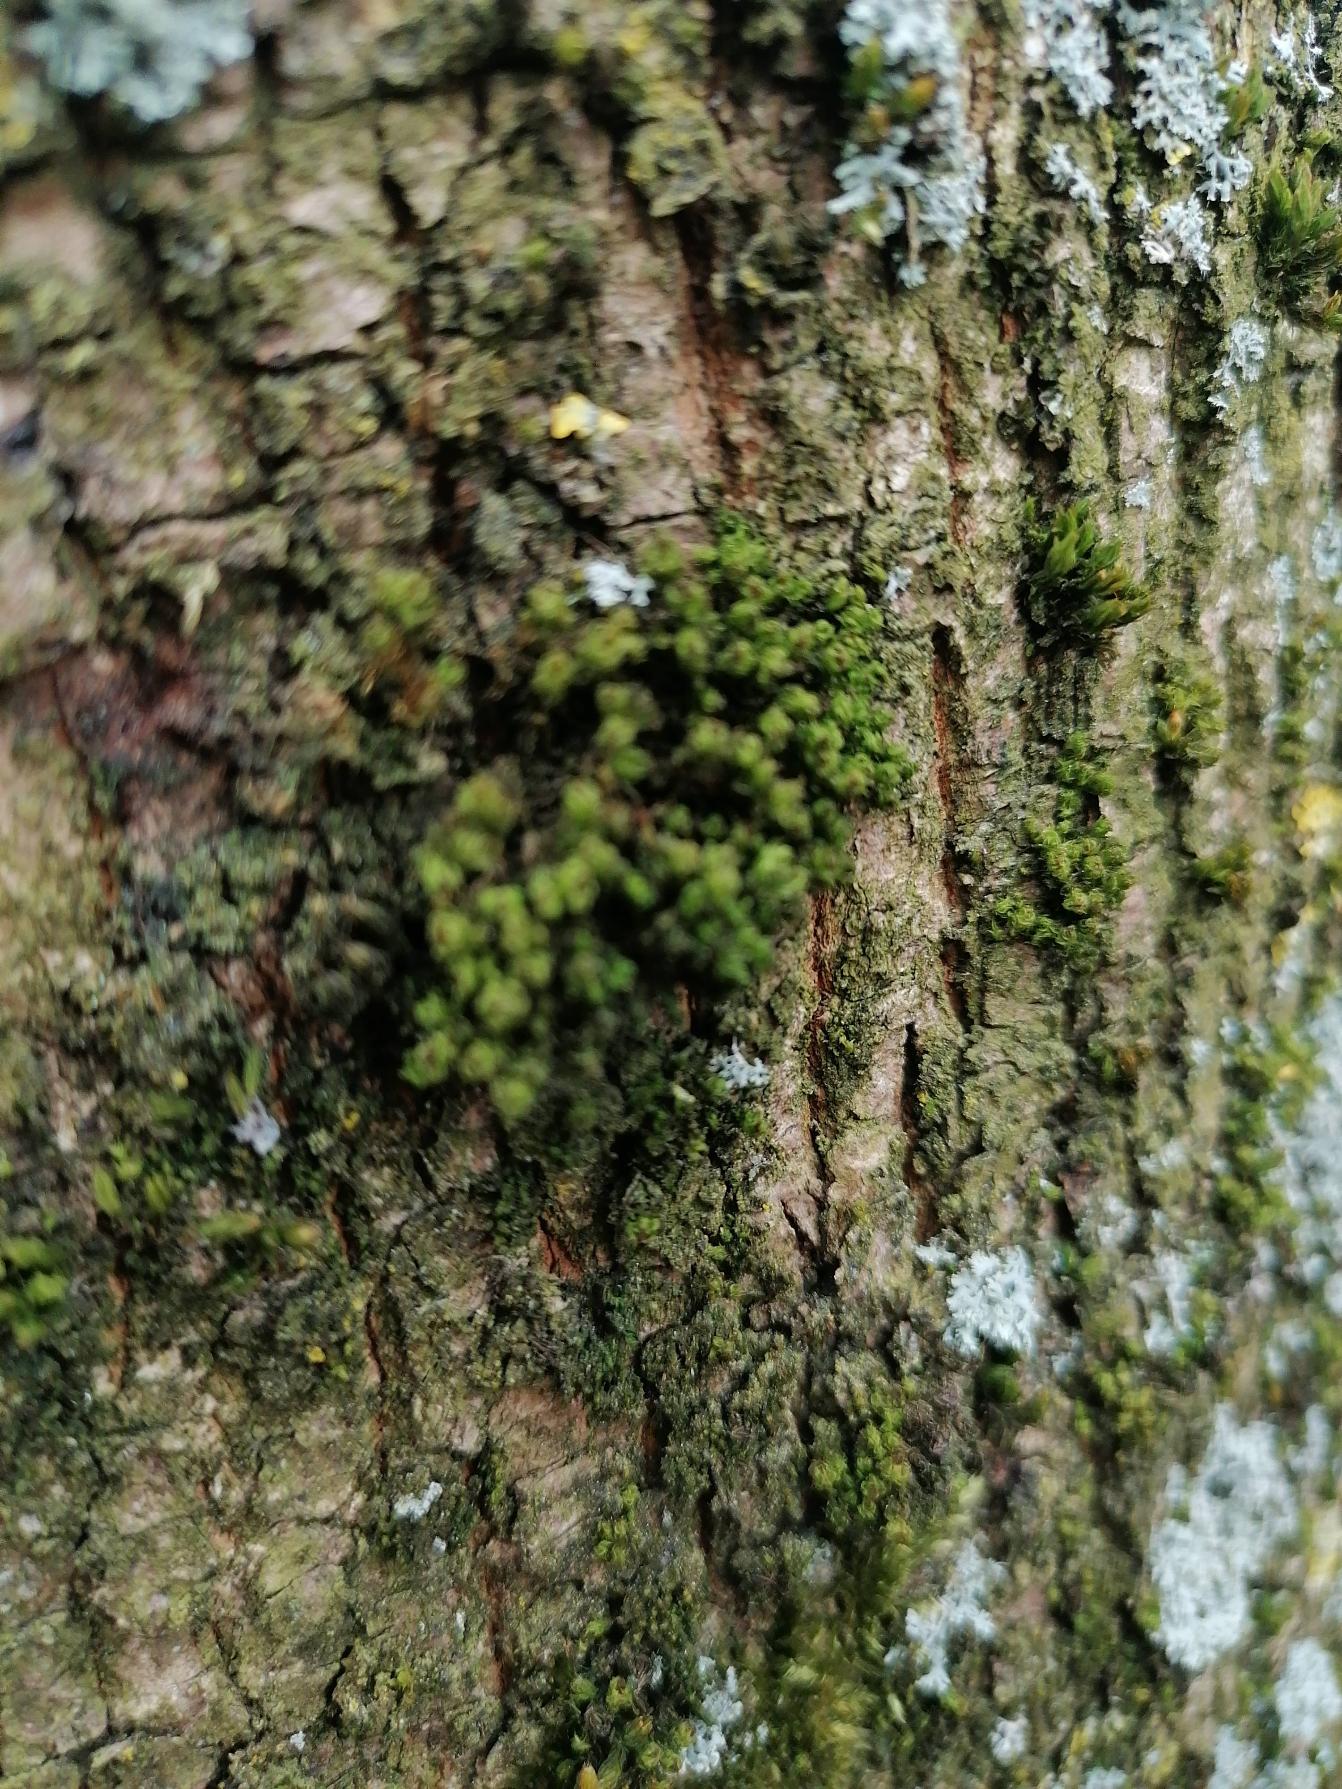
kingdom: Plantae
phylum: Bryophyta
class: Bryopsida
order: Orthotrichales
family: Orthotrichaceae
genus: Plenogemma
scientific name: Plenogemma phyllantha
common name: Stor låddenhætte
